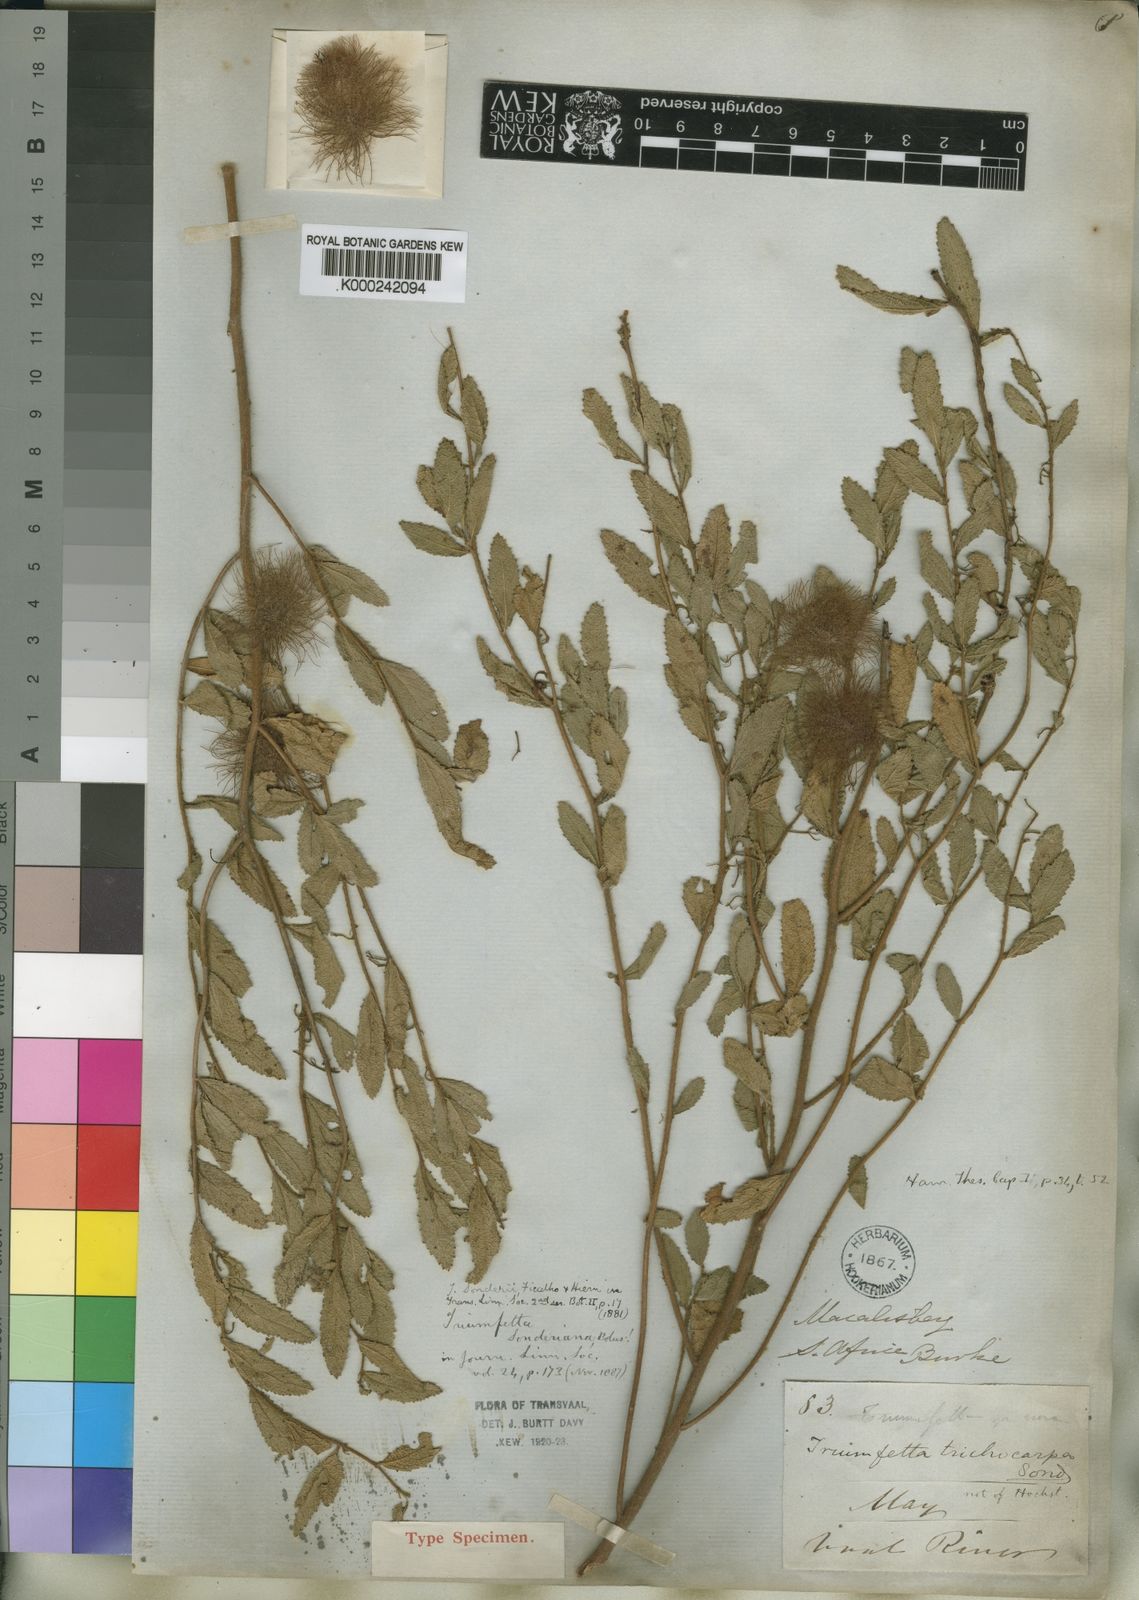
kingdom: Plantae
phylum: Tracheophyta
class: Magnoliopsida
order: Malvales
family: Malvaceae
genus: Triumfetta
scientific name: Triumfetta sonderi
